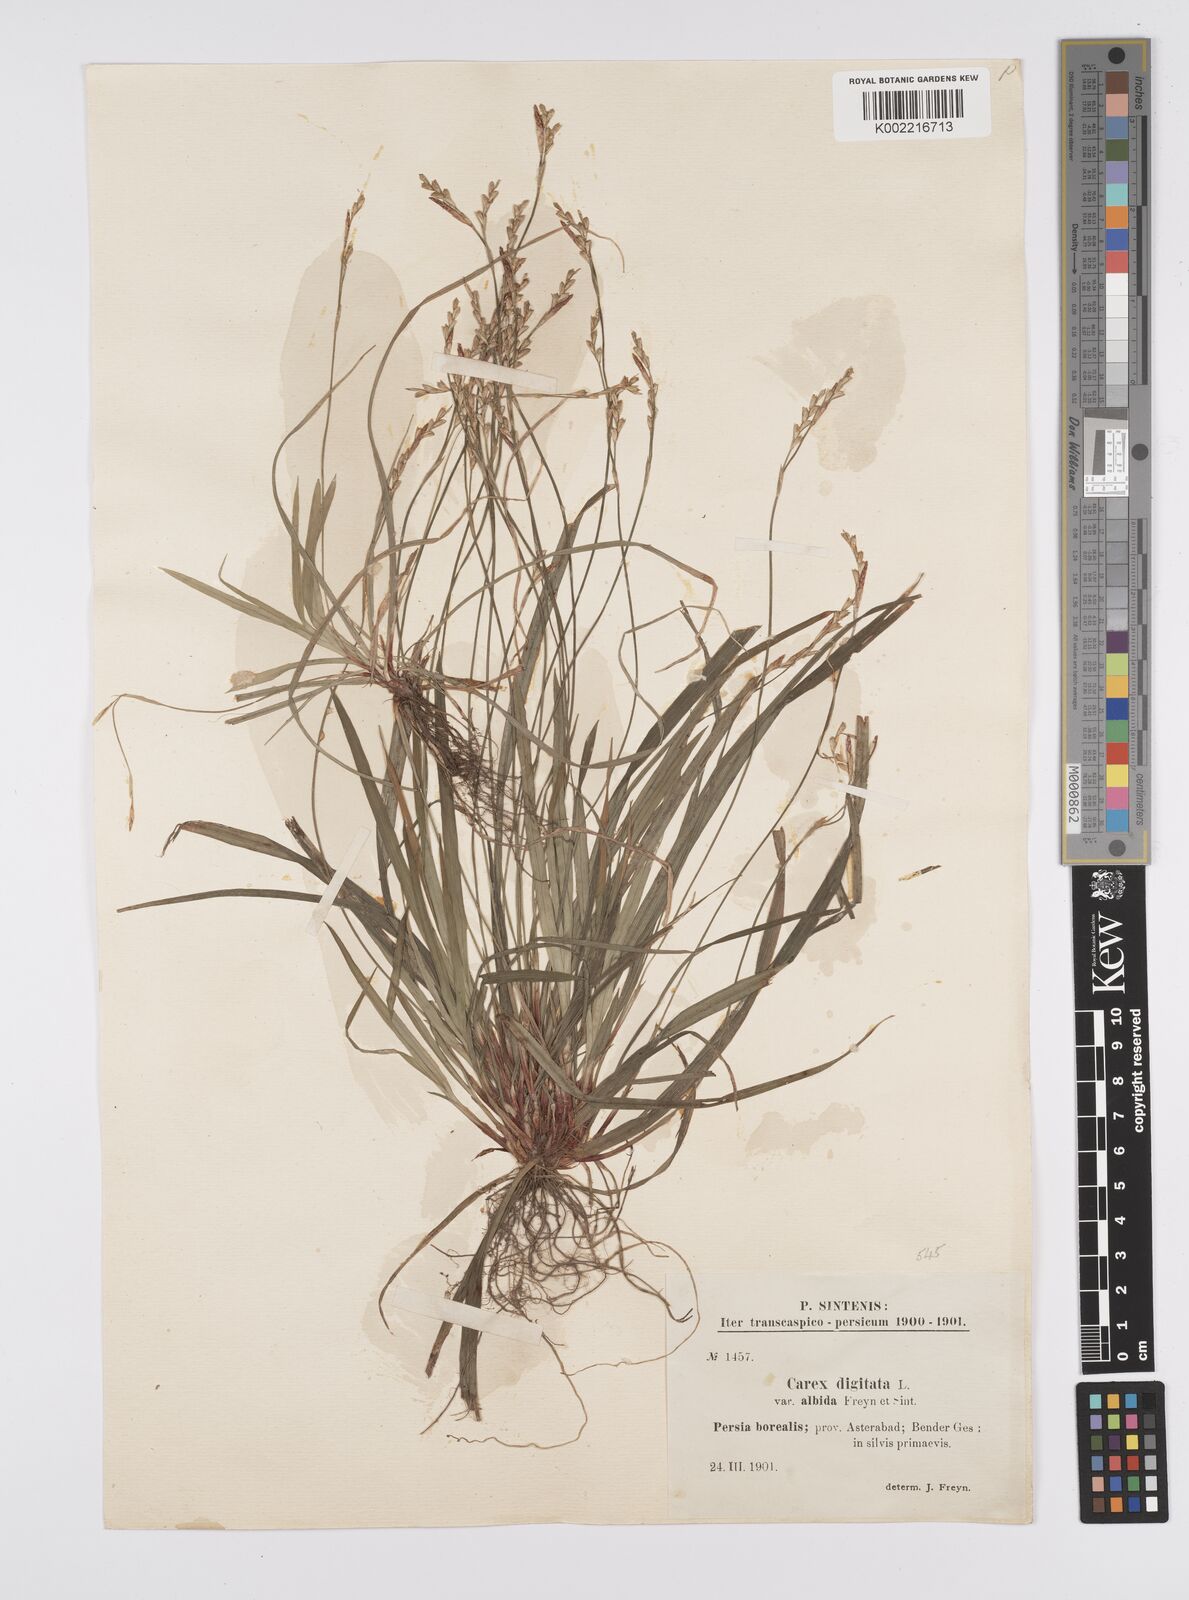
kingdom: Plantae
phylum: Tracheophyta
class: Liliopsida
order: Poales
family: Cyperaceae
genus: Carex
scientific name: Carex digitata
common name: Fingered sedge
